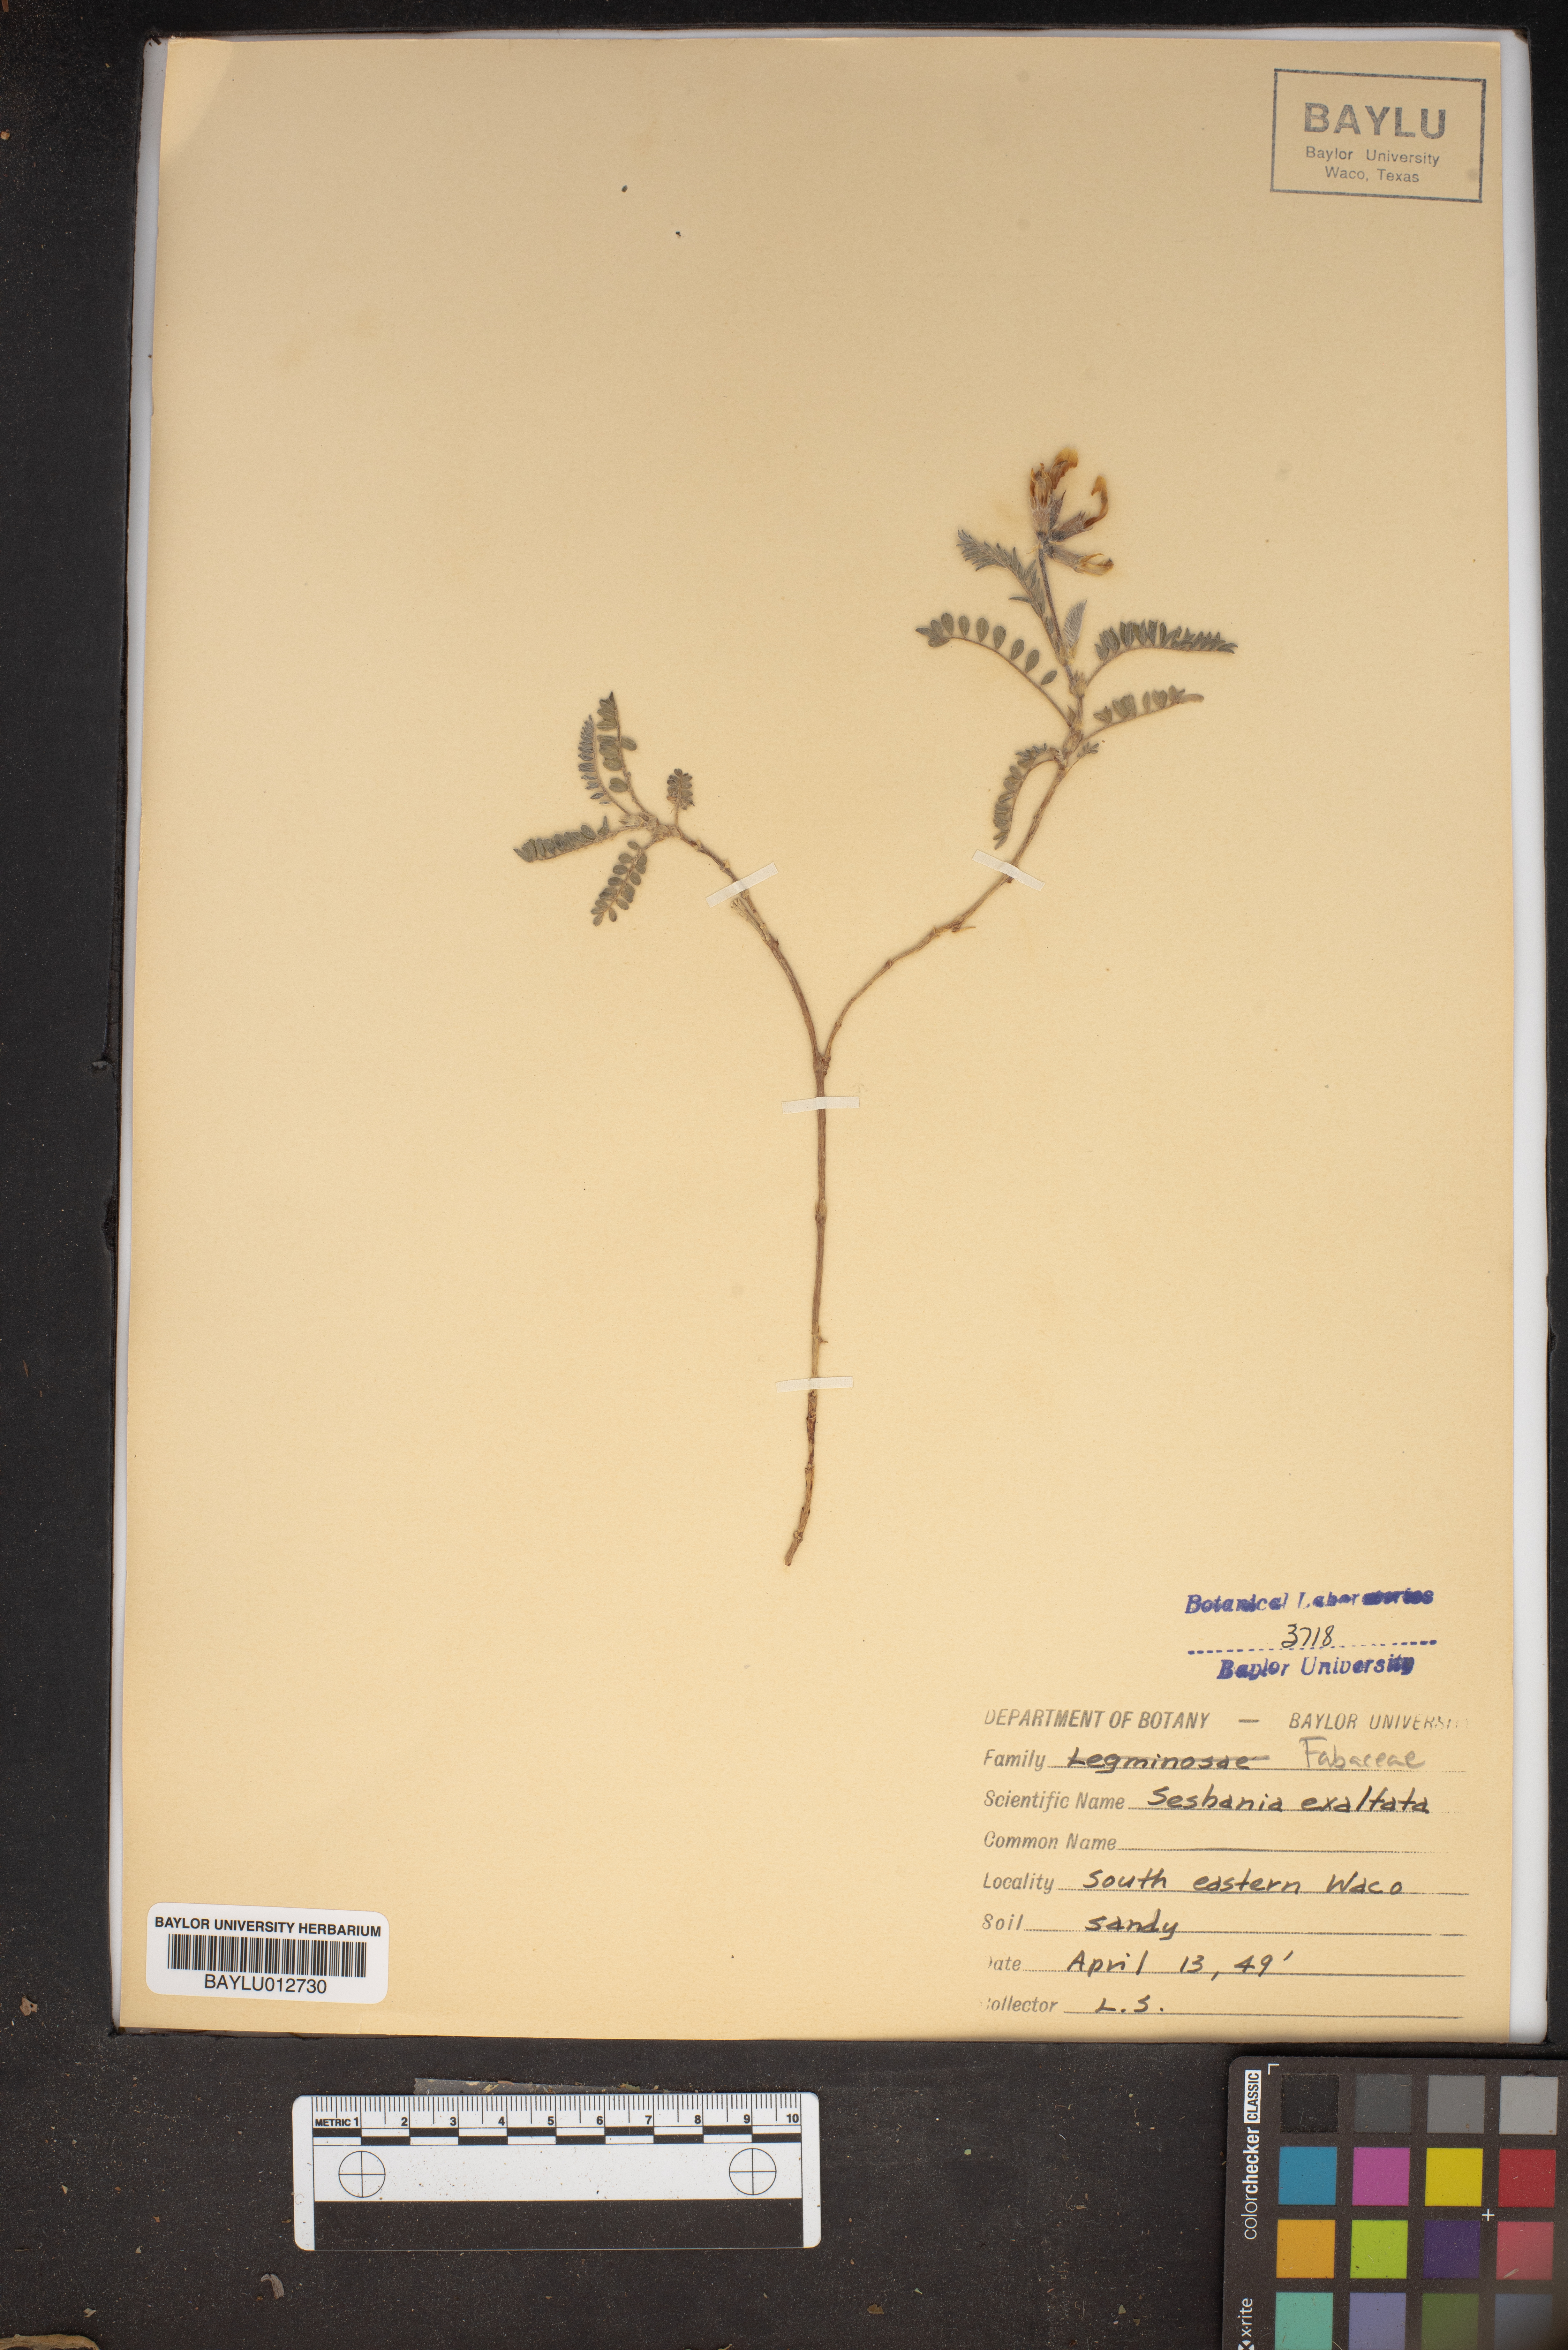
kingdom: Plantae
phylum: Tracheophyta
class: Magnoliopsida
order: Fabales
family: Fabaceae
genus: Sesbania
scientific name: Sesbania herbacea
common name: Bigpod sesbania
